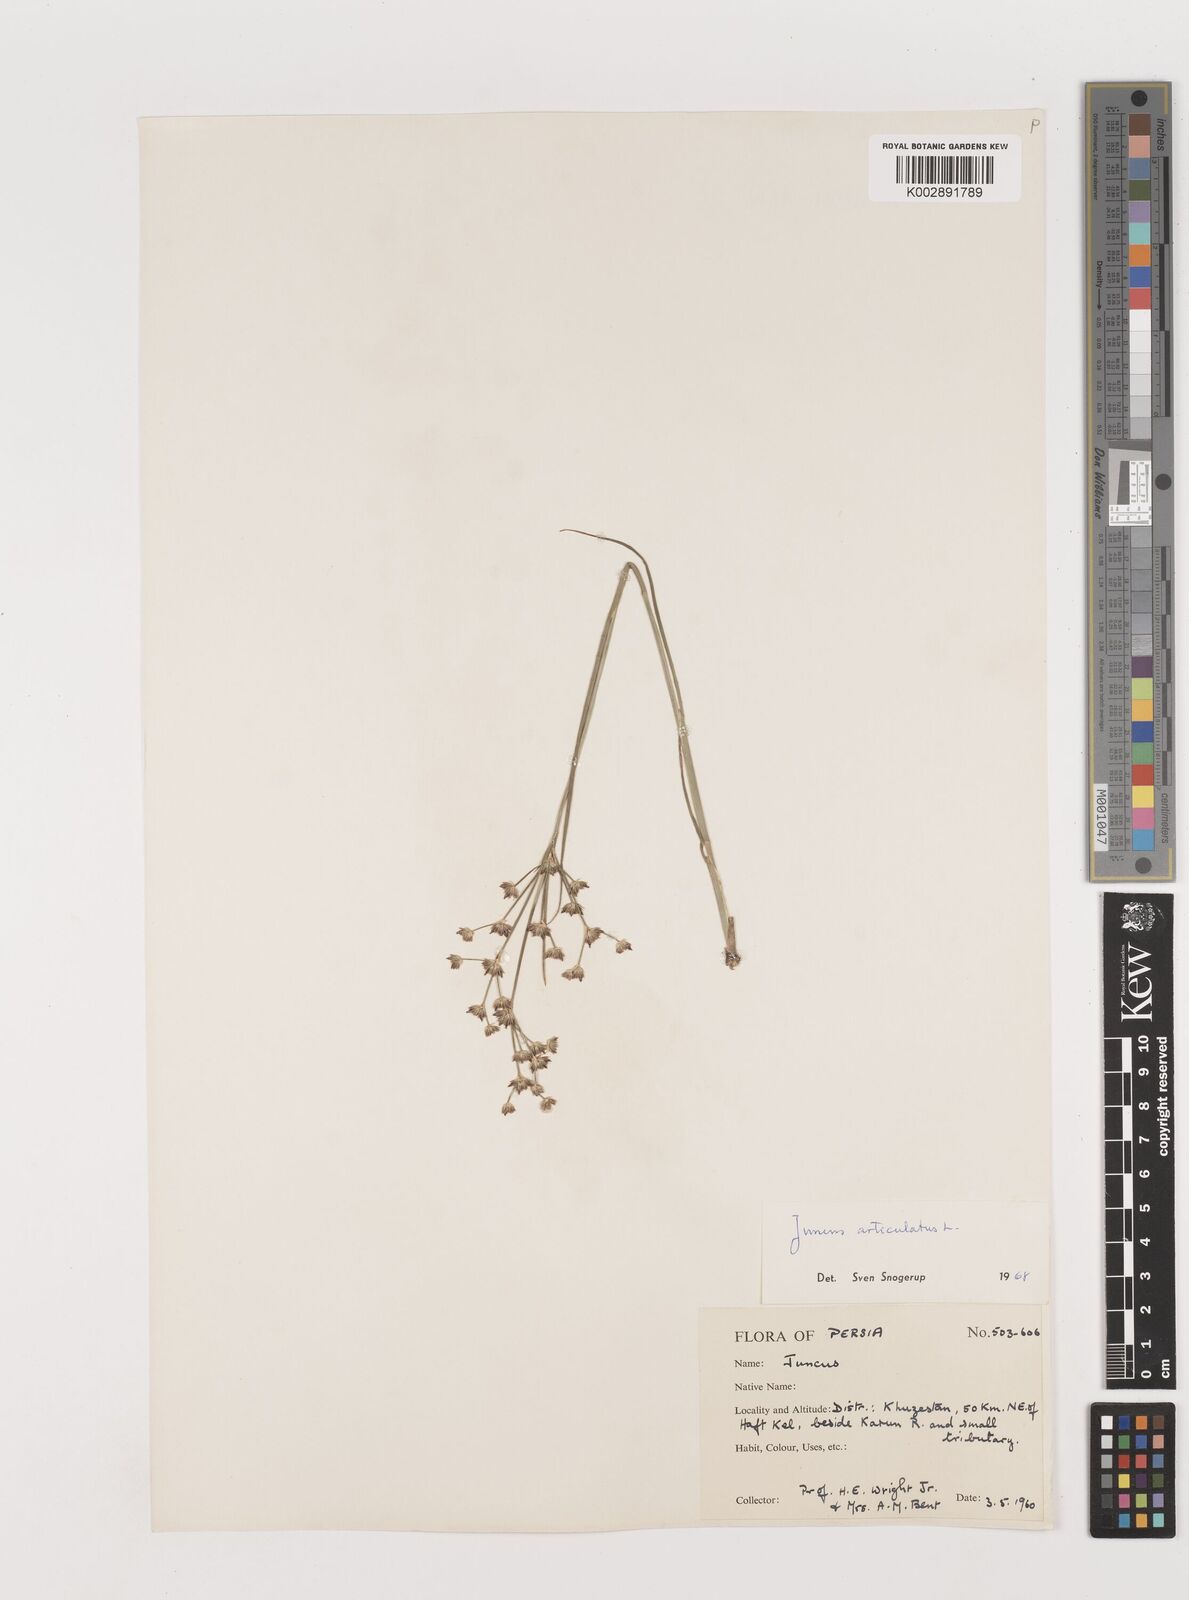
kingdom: Plantae
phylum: Tracheophyta
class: Liliopsida
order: Poales
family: Juncaceae
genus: Juncus
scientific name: Juncus articulatus
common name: Jointed rush
